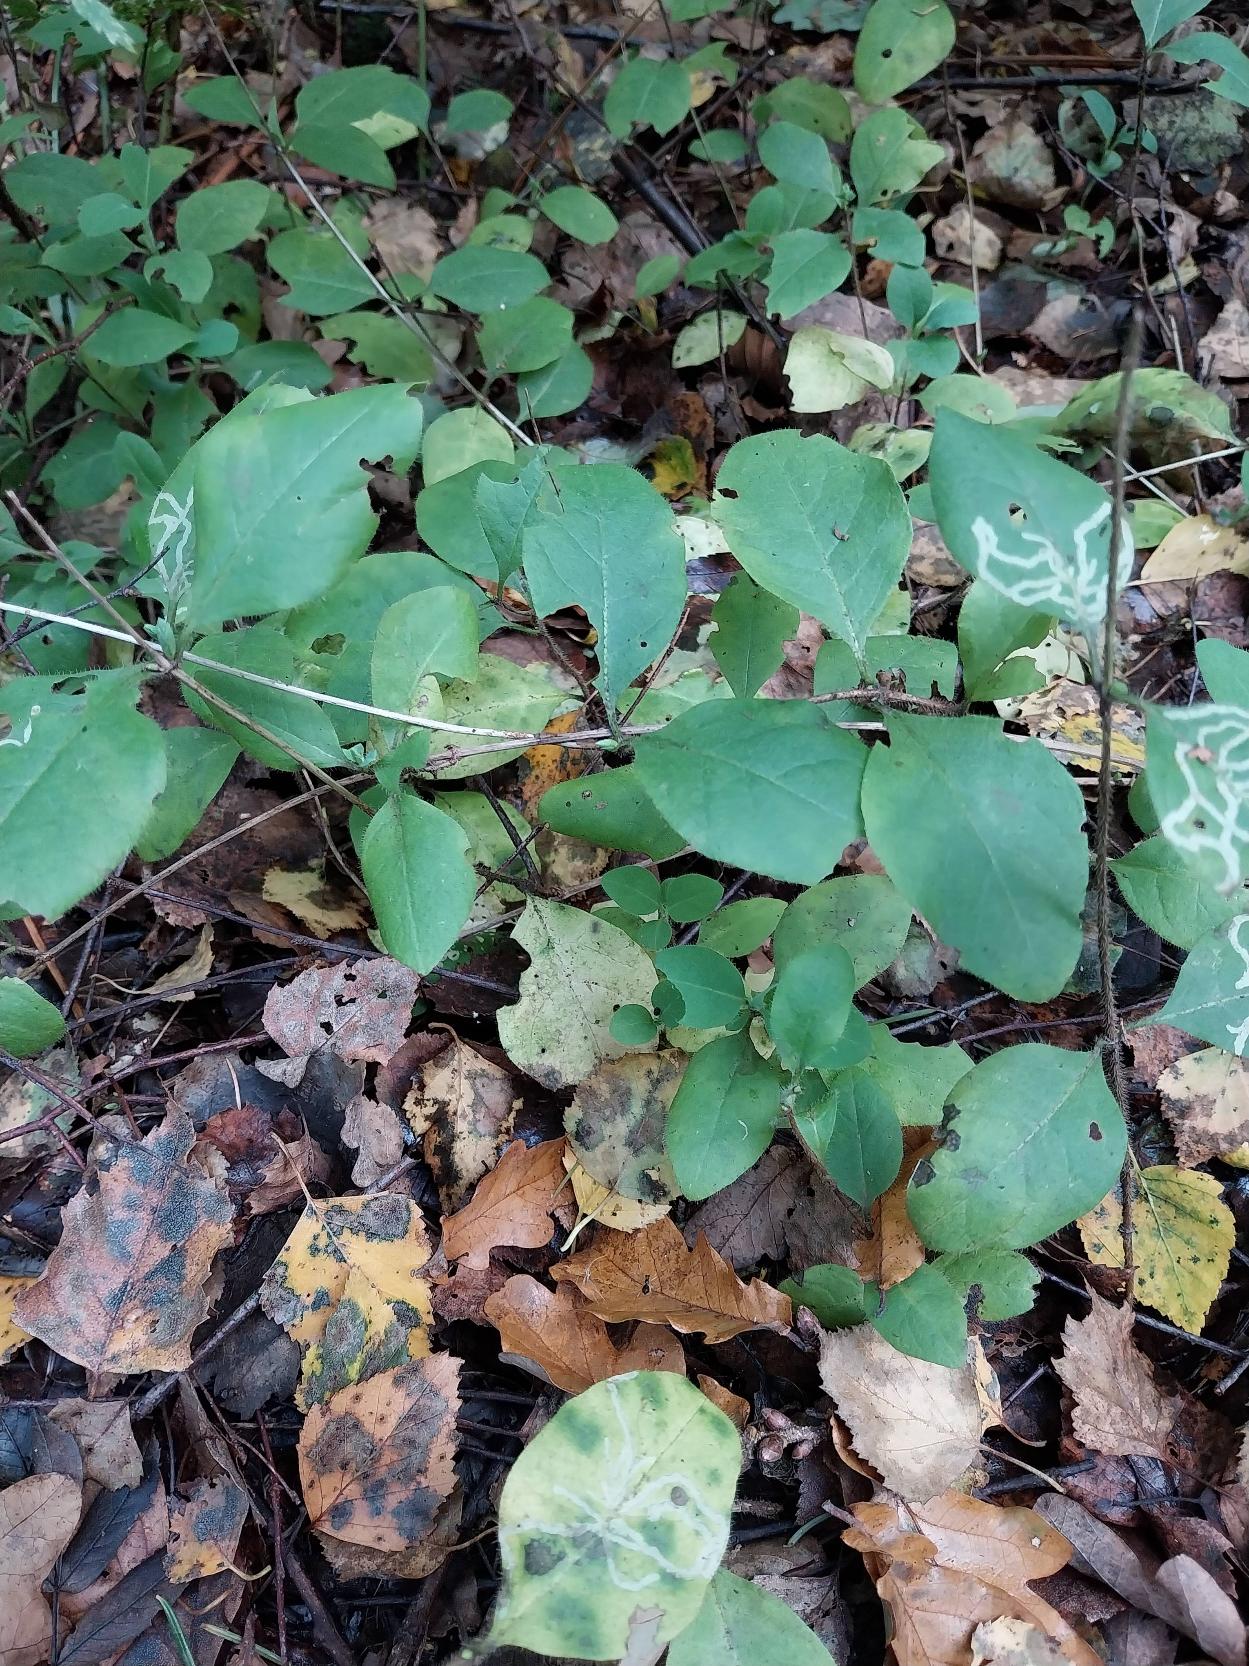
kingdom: Plantae
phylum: Tracheophyta
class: Magnoliopsida
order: Dipsacales
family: Caprifoliaceae
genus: Lonicera
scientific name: Lonicera periclymenum
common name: Almindelig gedeblad
